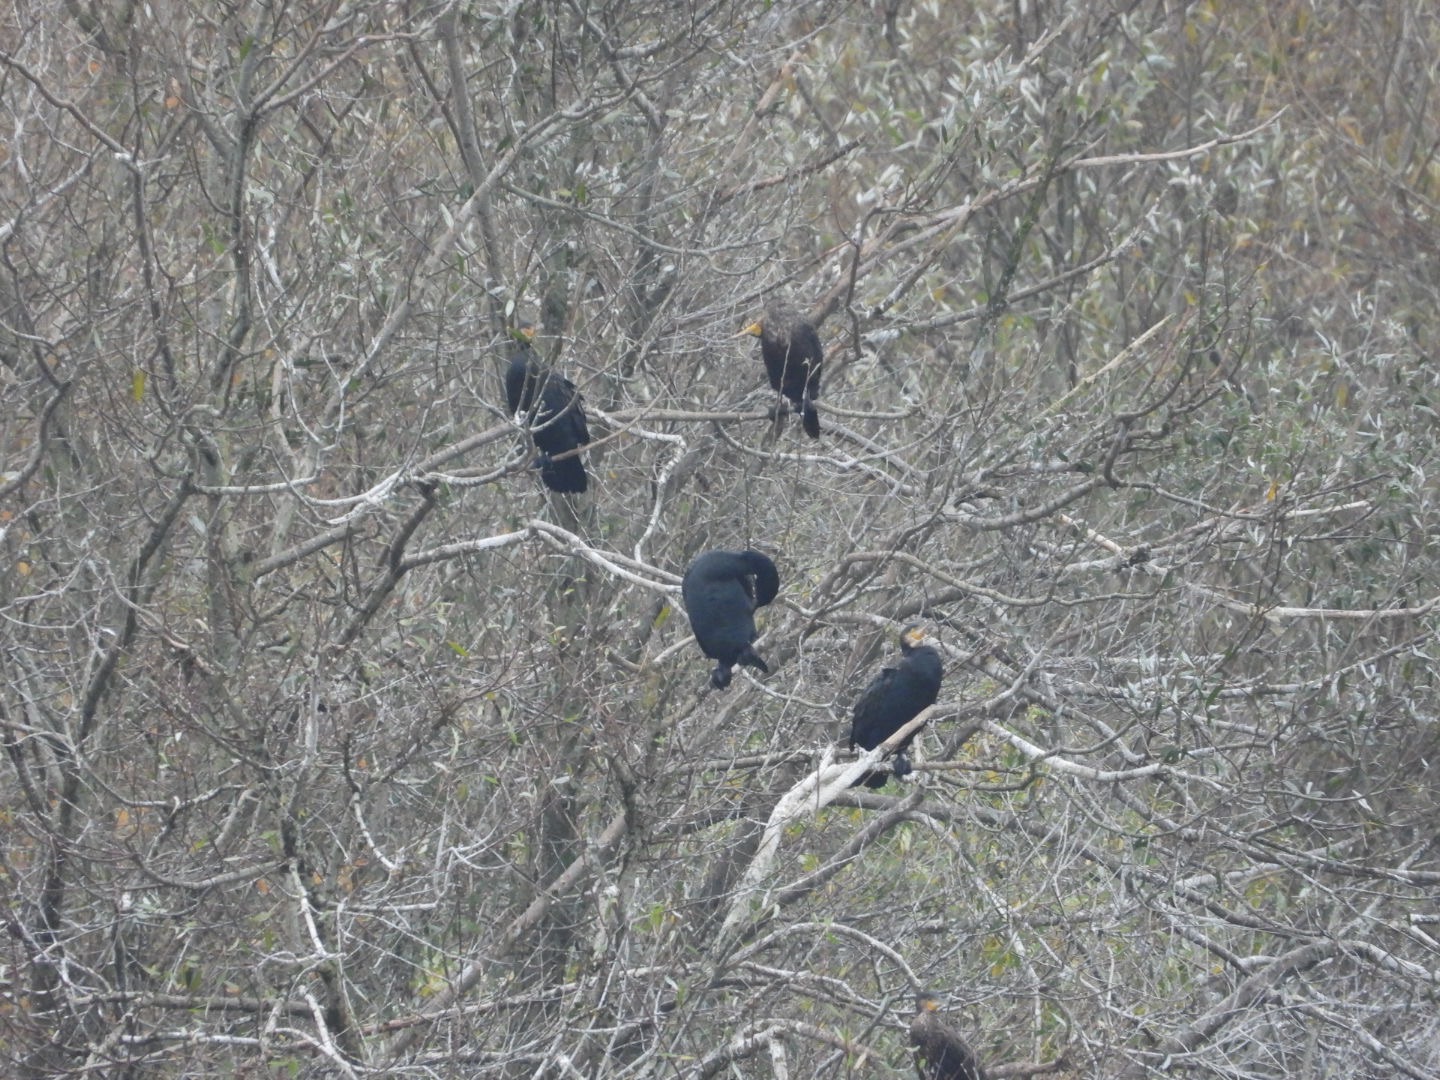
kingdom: Animalia
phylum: Chordata
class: Aves
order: Suliformes
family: Phalacrocoracidae
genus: Phalacrocorax
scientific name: Phalacrocorax carbo
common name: Skarv
